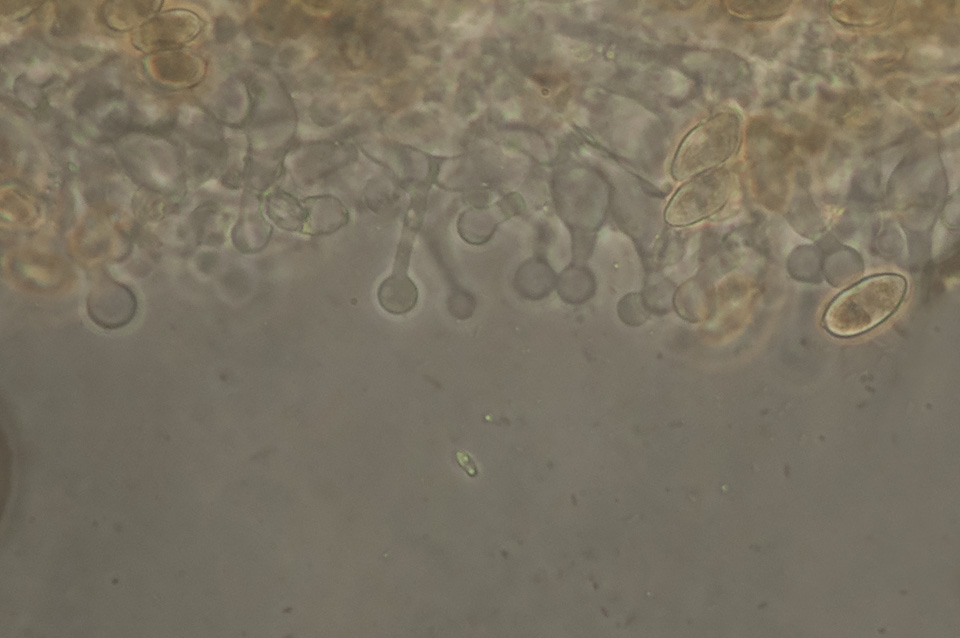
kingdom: Fungi
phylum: Basidiomycota
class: Agaricomycetes
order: Agaricales
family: Hymenogastraceae
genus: Galerina
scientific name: Galerina subclavata
